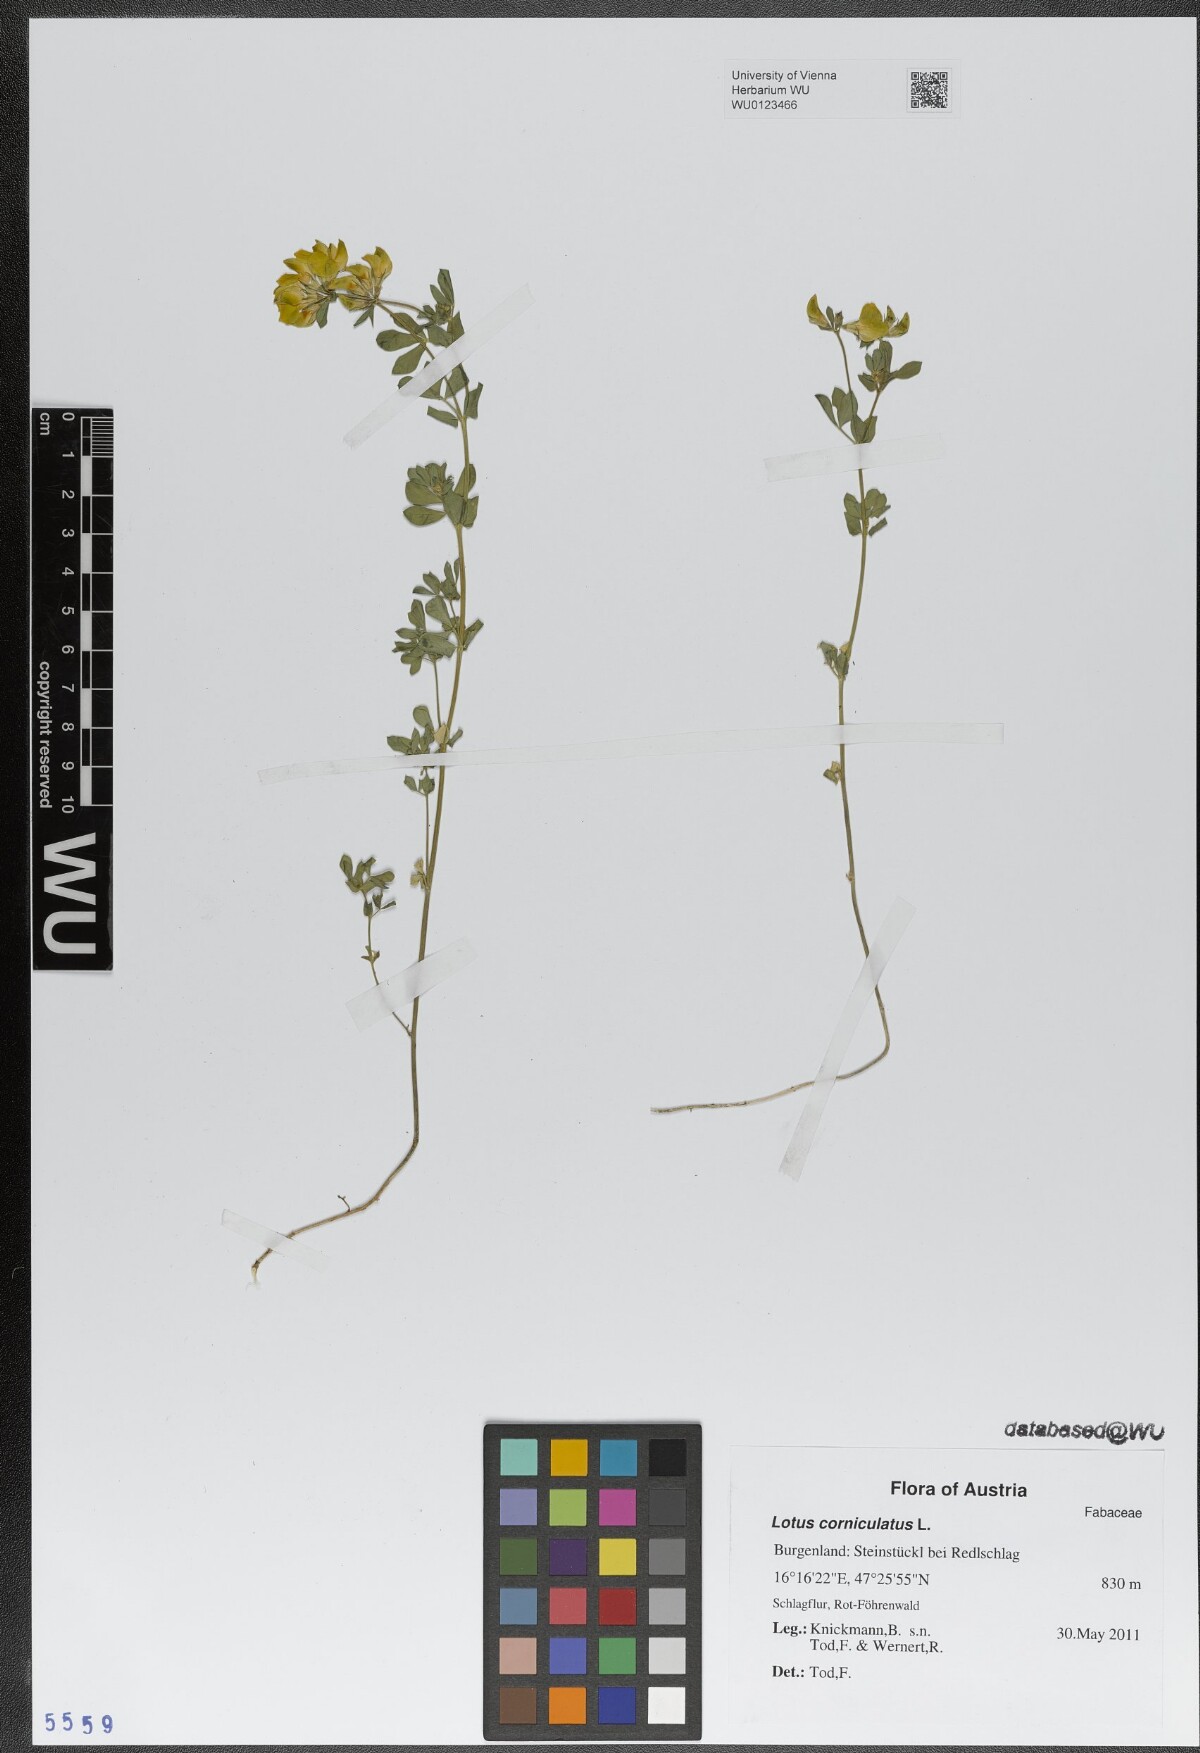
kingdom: Plantae
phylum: Tracheophyta
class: Magnoliopsida
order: Fabales
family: Fabaceae
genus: Lotus
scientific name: Lotus corniculatus
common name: Common bird's-foot-trefoil
